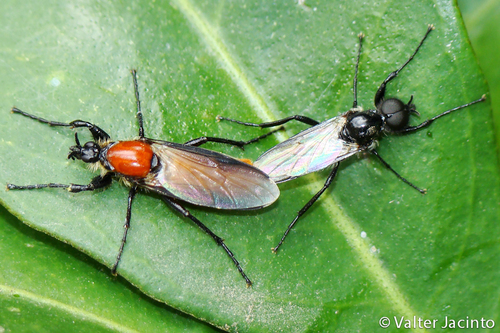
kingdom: Animalia
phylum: Arthropoda
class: Insecta
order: Diptera
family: Bibionidae
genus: Bibio
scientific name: Bibio hortulanus
